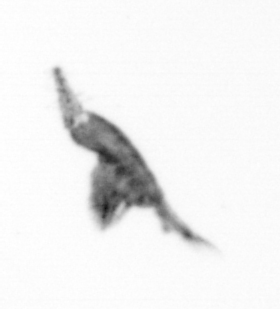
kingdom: Animalia
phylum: Arthropoda
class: Copepoda
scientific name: Copepoda
